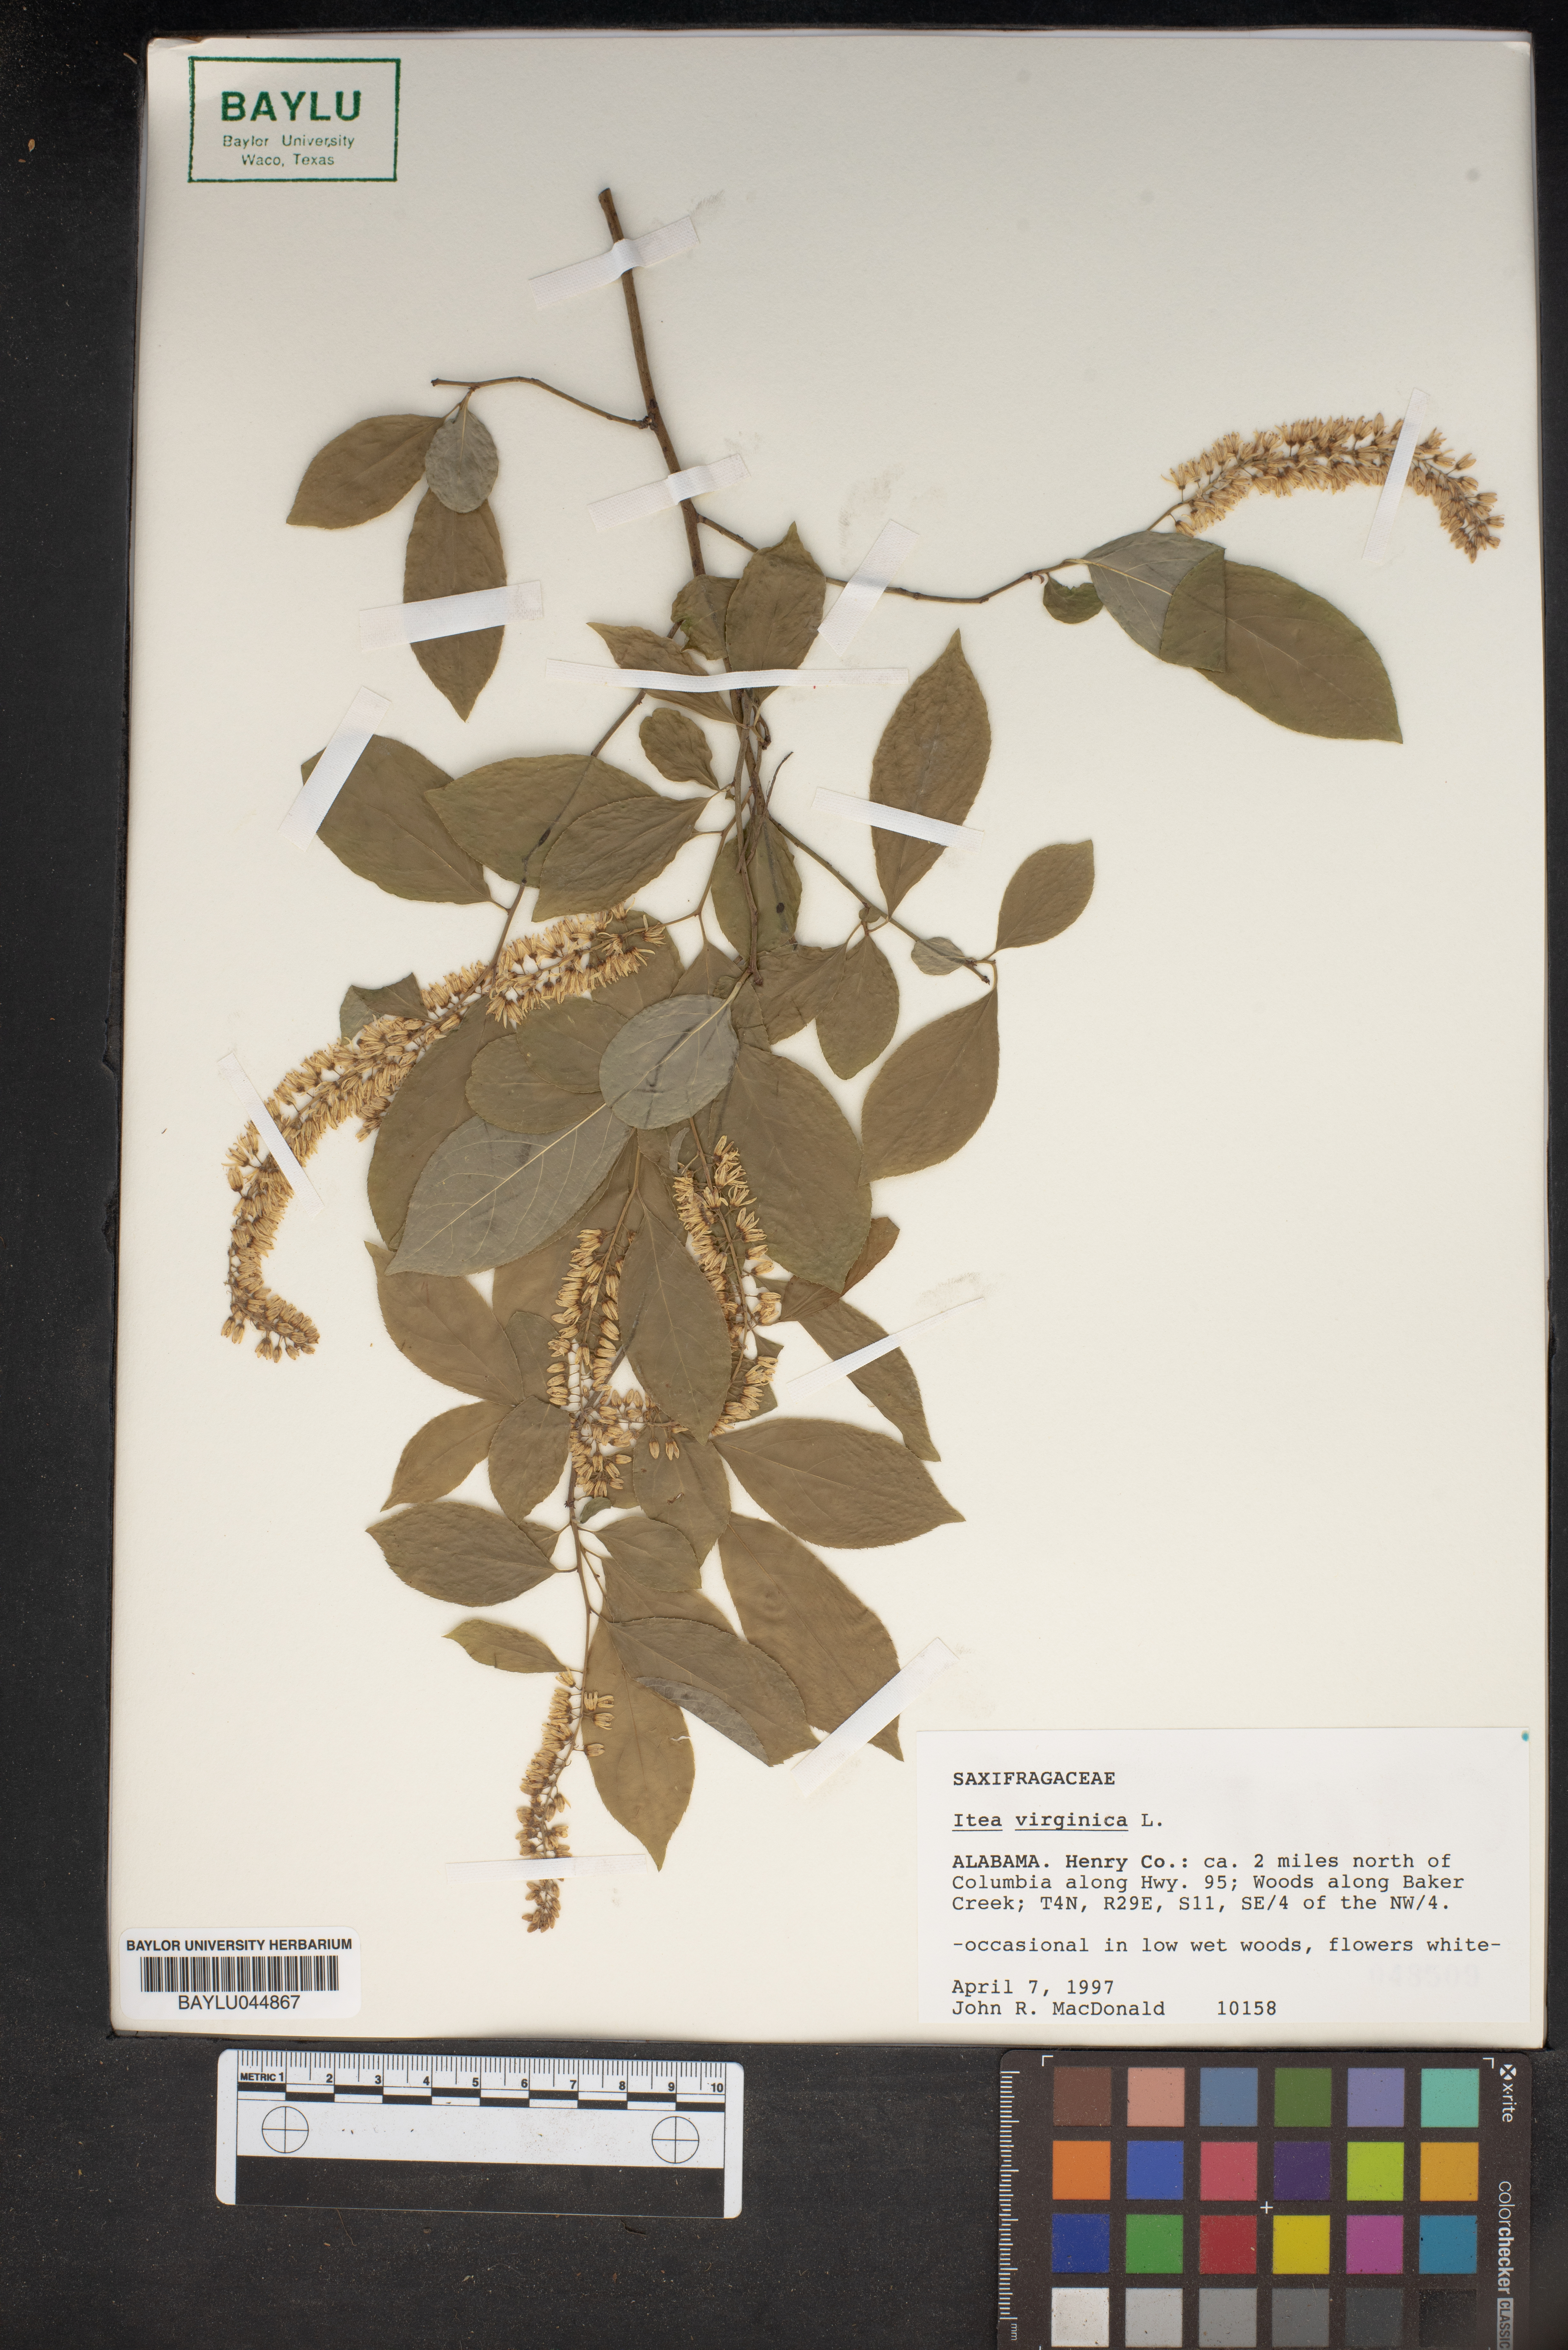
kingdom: Plantae
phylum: Tracheophyta
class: Magnoliopsida
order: Saxifragales
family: Iteaceae
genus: Itea
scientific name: Itea virginica
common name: Sweetspire
